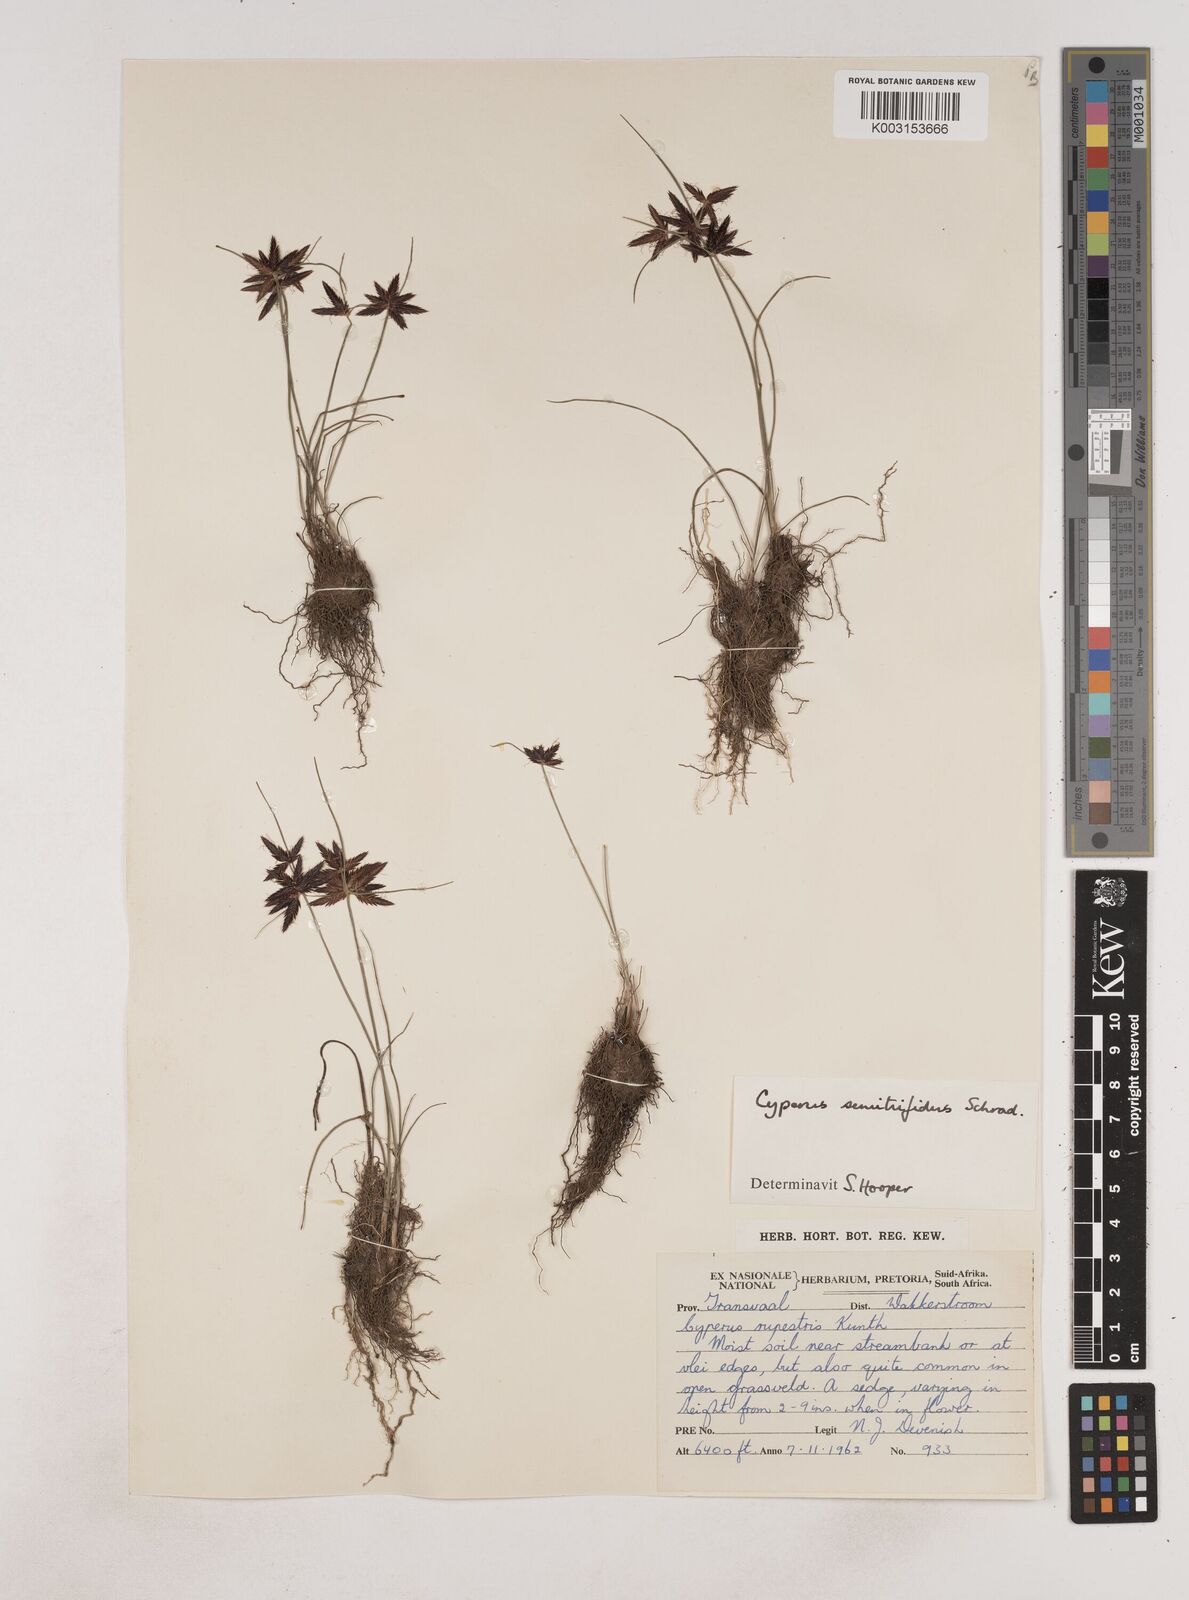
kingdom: Plantae
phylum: Tracheophyta
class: Liliopsida
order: Poales
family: Cyperaceae
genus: Cyperus
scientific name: Cyperus semitrifidus
